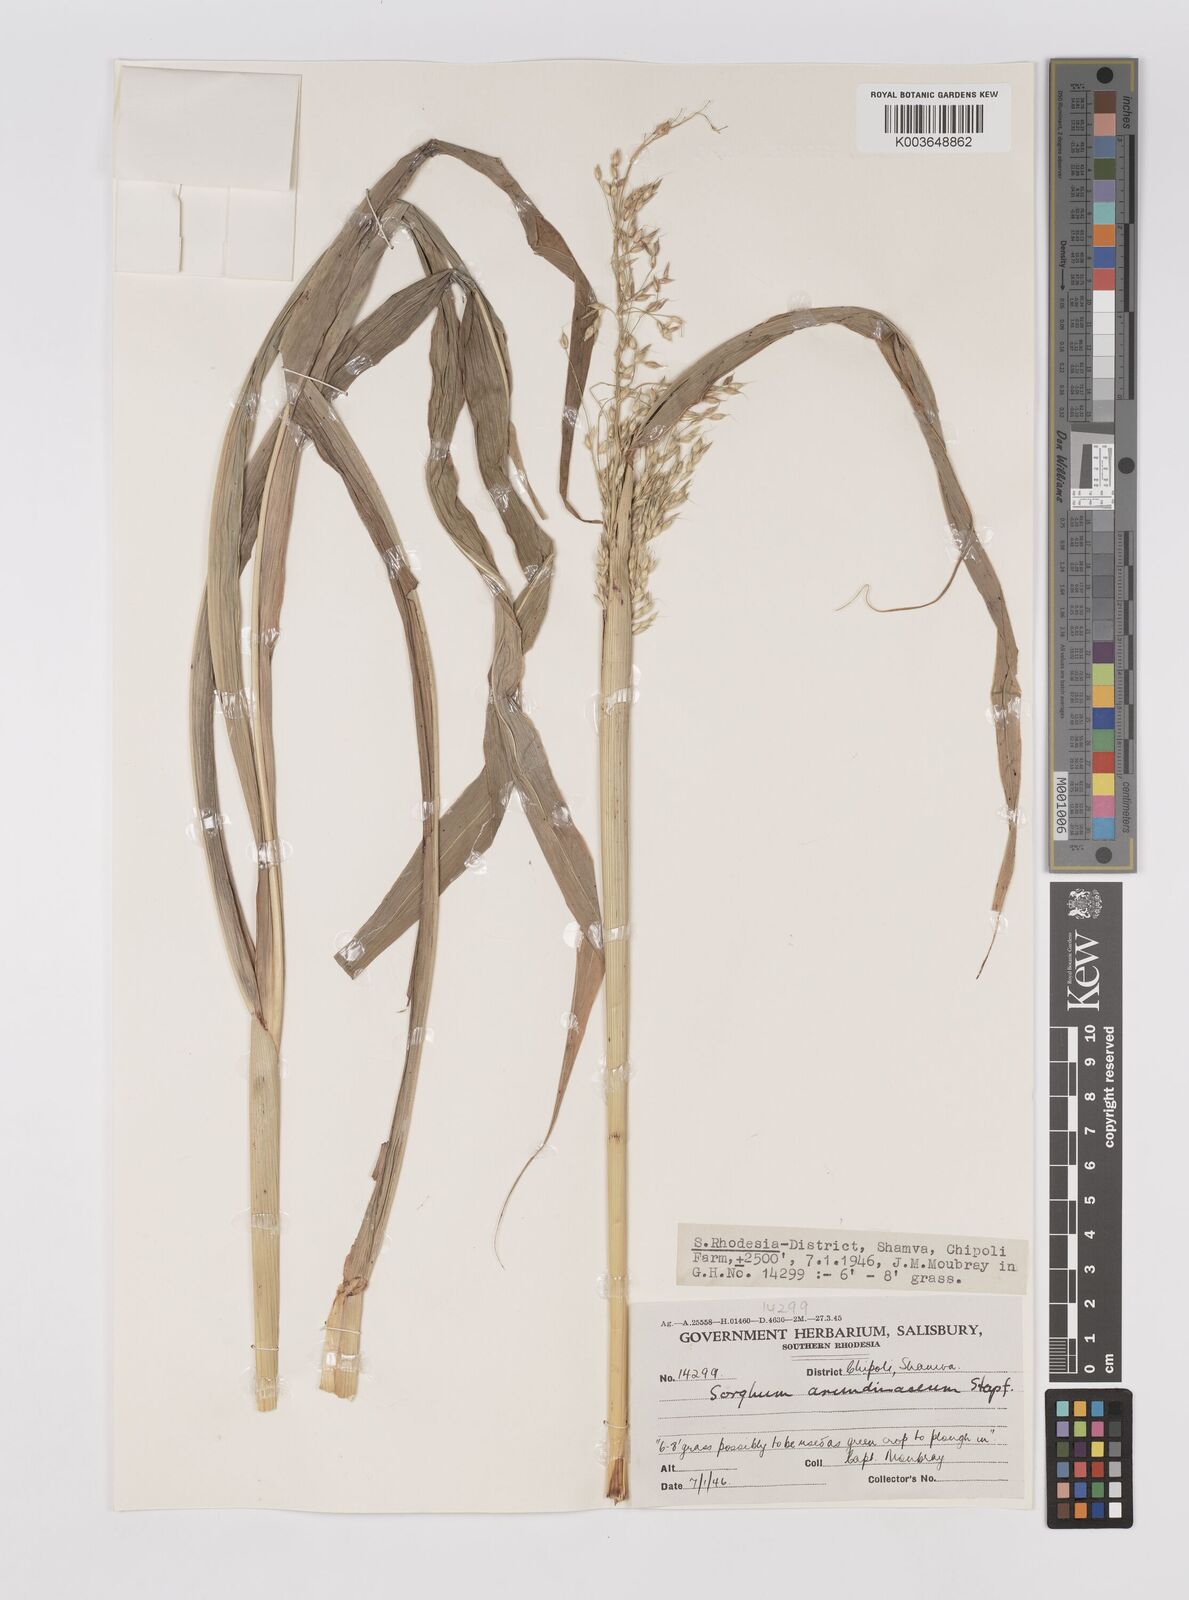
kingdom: Plantae
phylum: Tracheophyta
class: Liliopsida
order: Poales
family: Poaceae
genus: Sorghum
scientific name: Sorghum arundinaceum
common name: Sorghum
